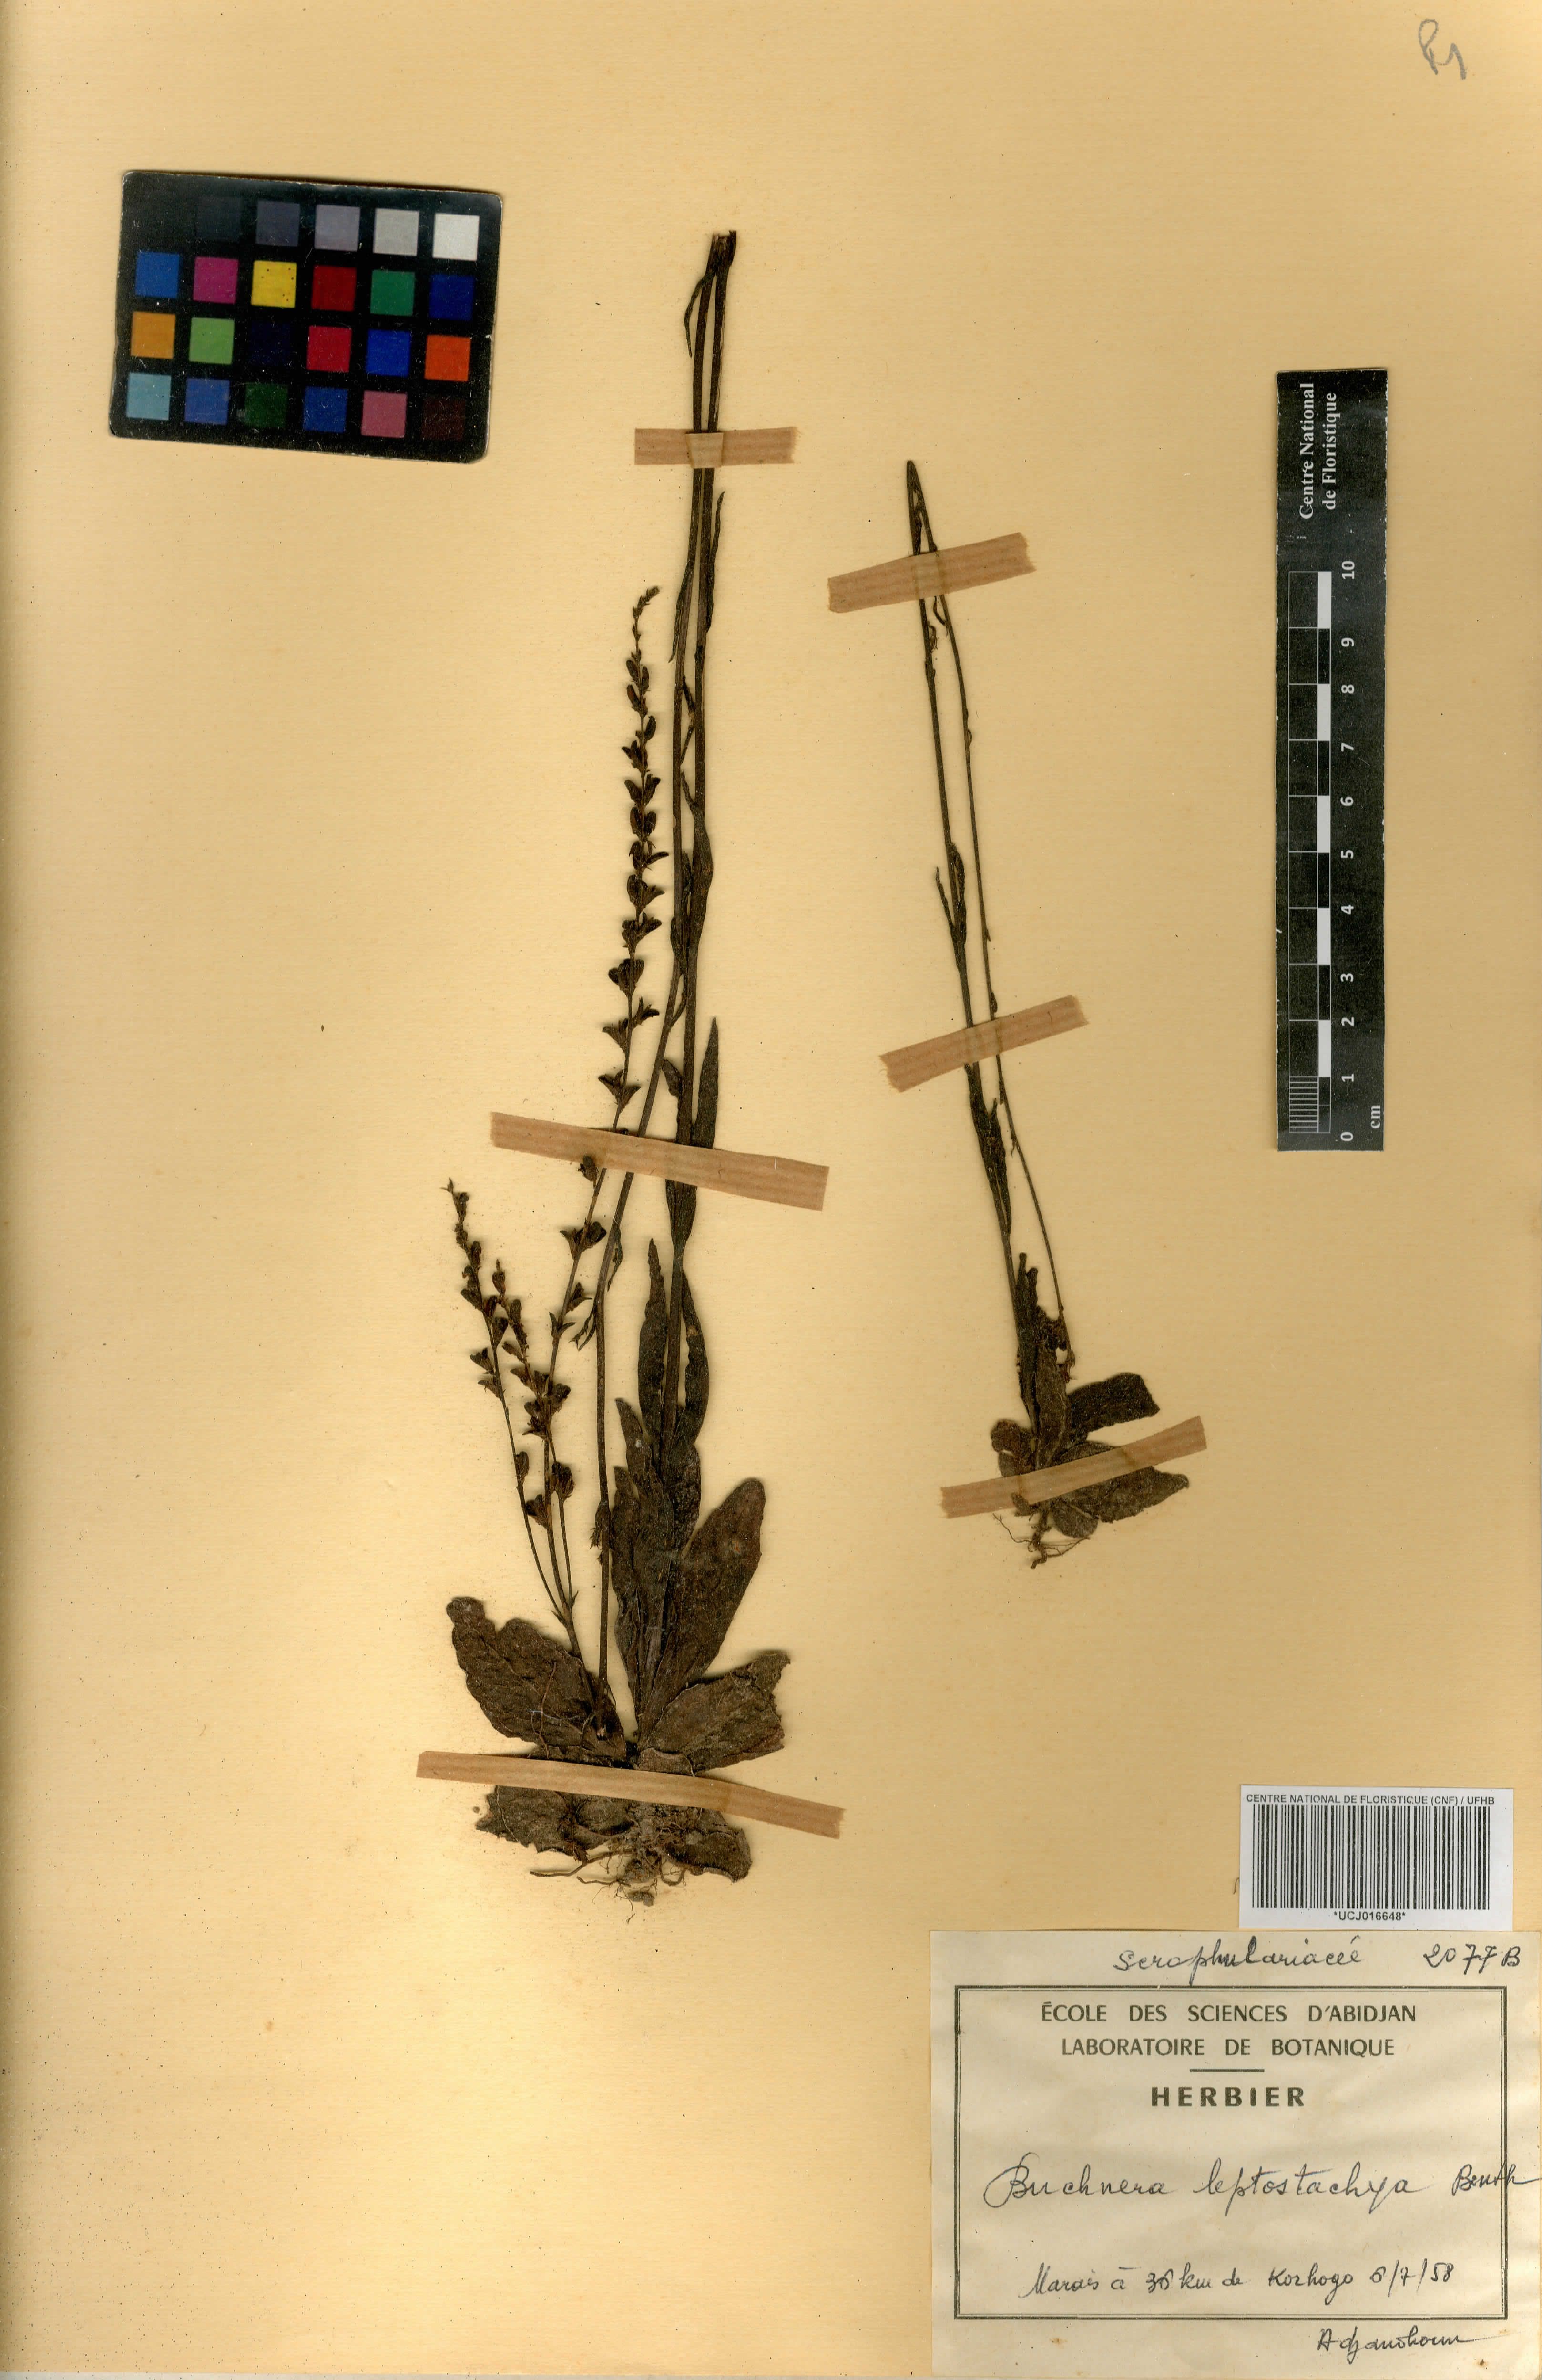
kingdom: Plantae
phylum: Tracheophyta
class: Magnoliopsida
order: Lamiales
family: Orobanchaceae
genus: Buchnera
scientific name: Buchnera leptostachya
